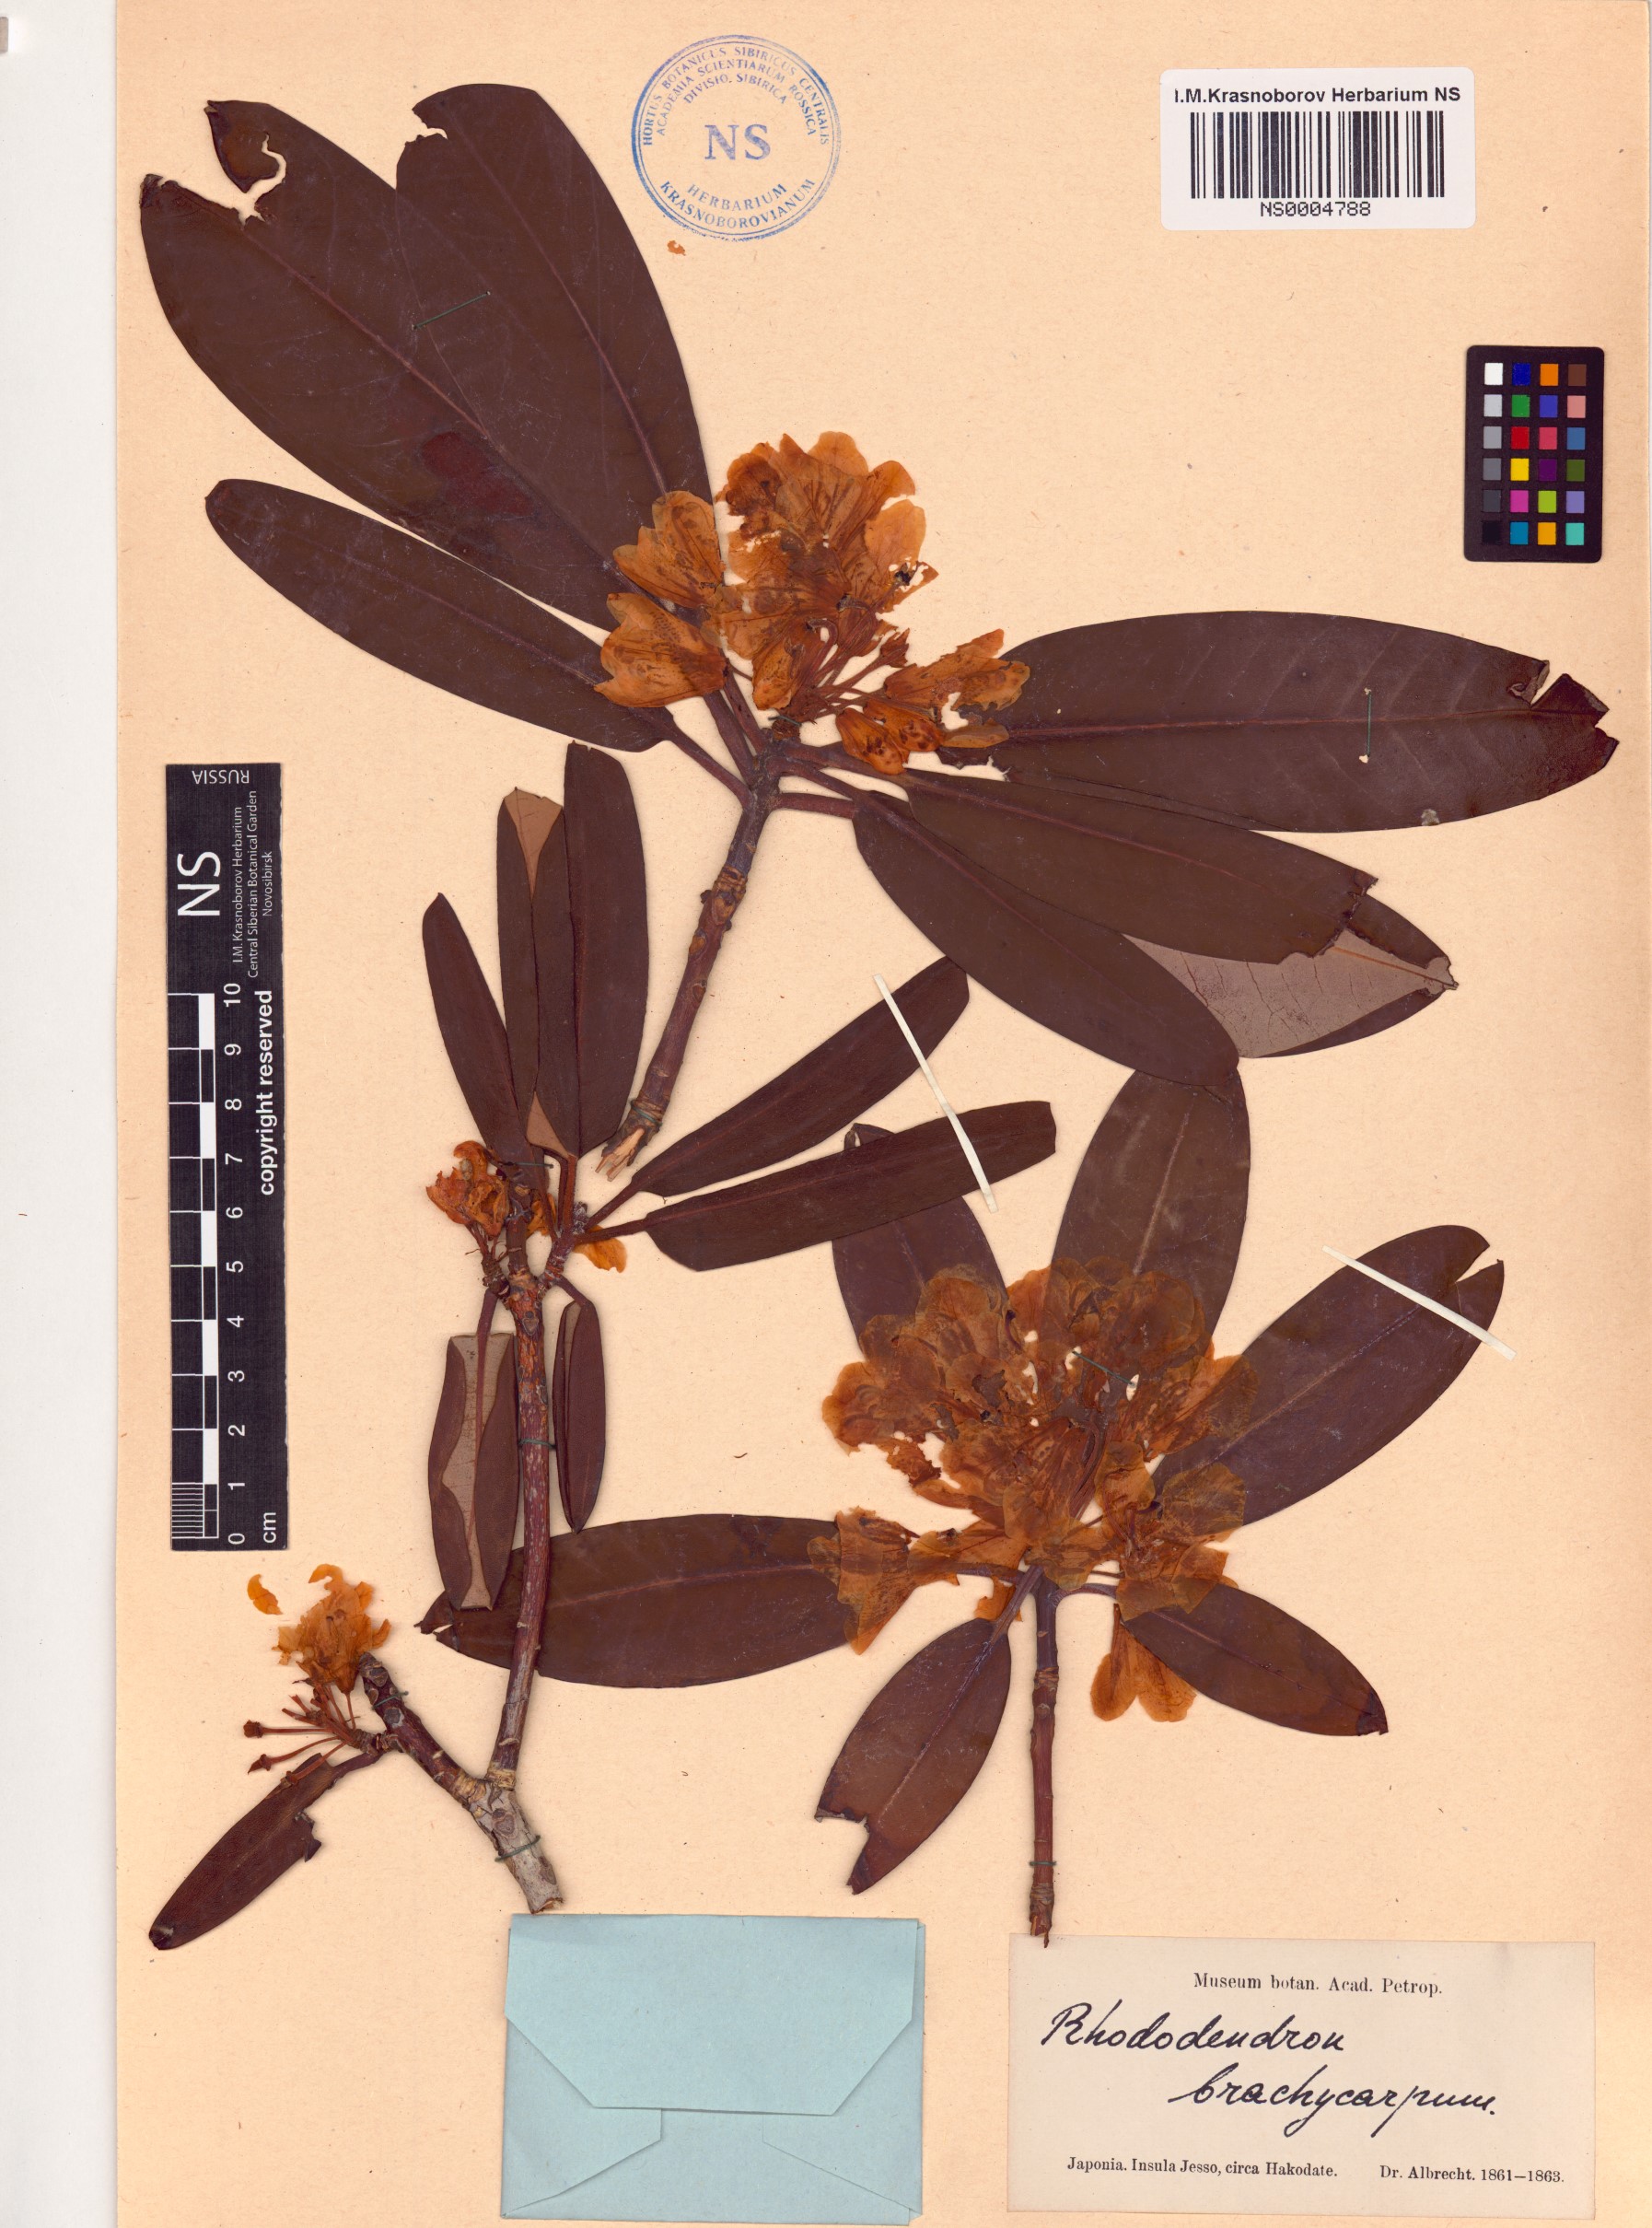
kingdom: Plantae
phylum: Tracheophyta
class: Magnoliopsida
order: Ericales
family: Ericaceae
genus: Rhododendron
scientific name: Rhododendron brachycarpum
